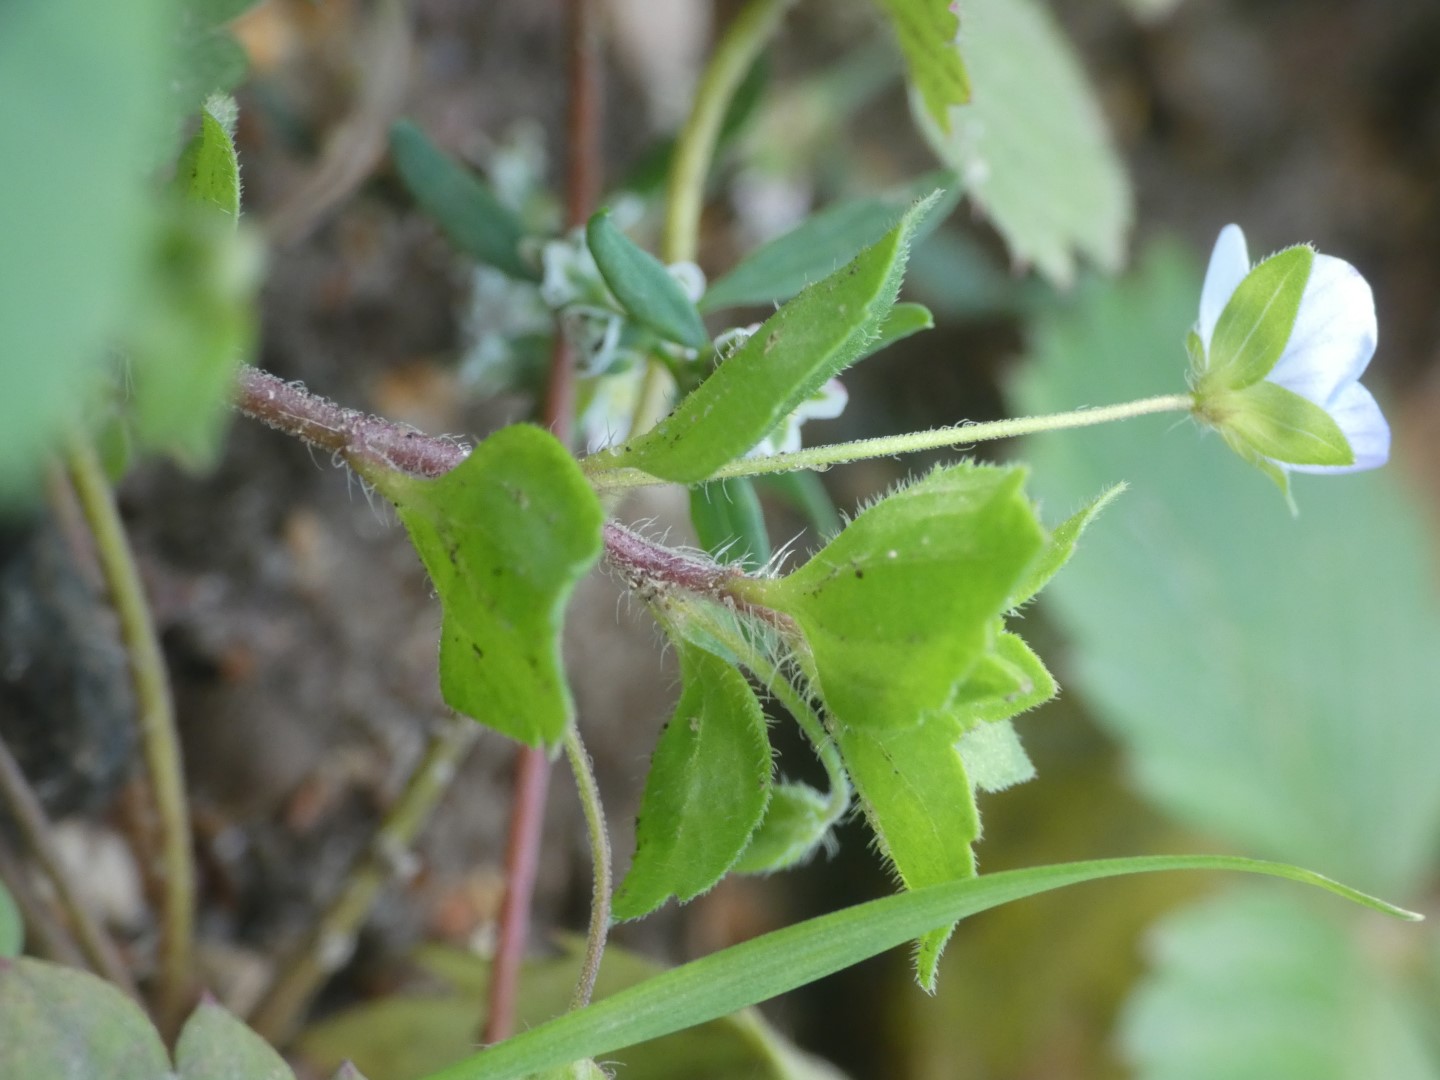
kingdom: Plantae
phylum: Tracheophyta
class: Magnoliopsida
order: Lamiales
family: Plantaginaceae
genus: Veronica
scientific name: Veronica persica
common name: Storkronet ærenpris
